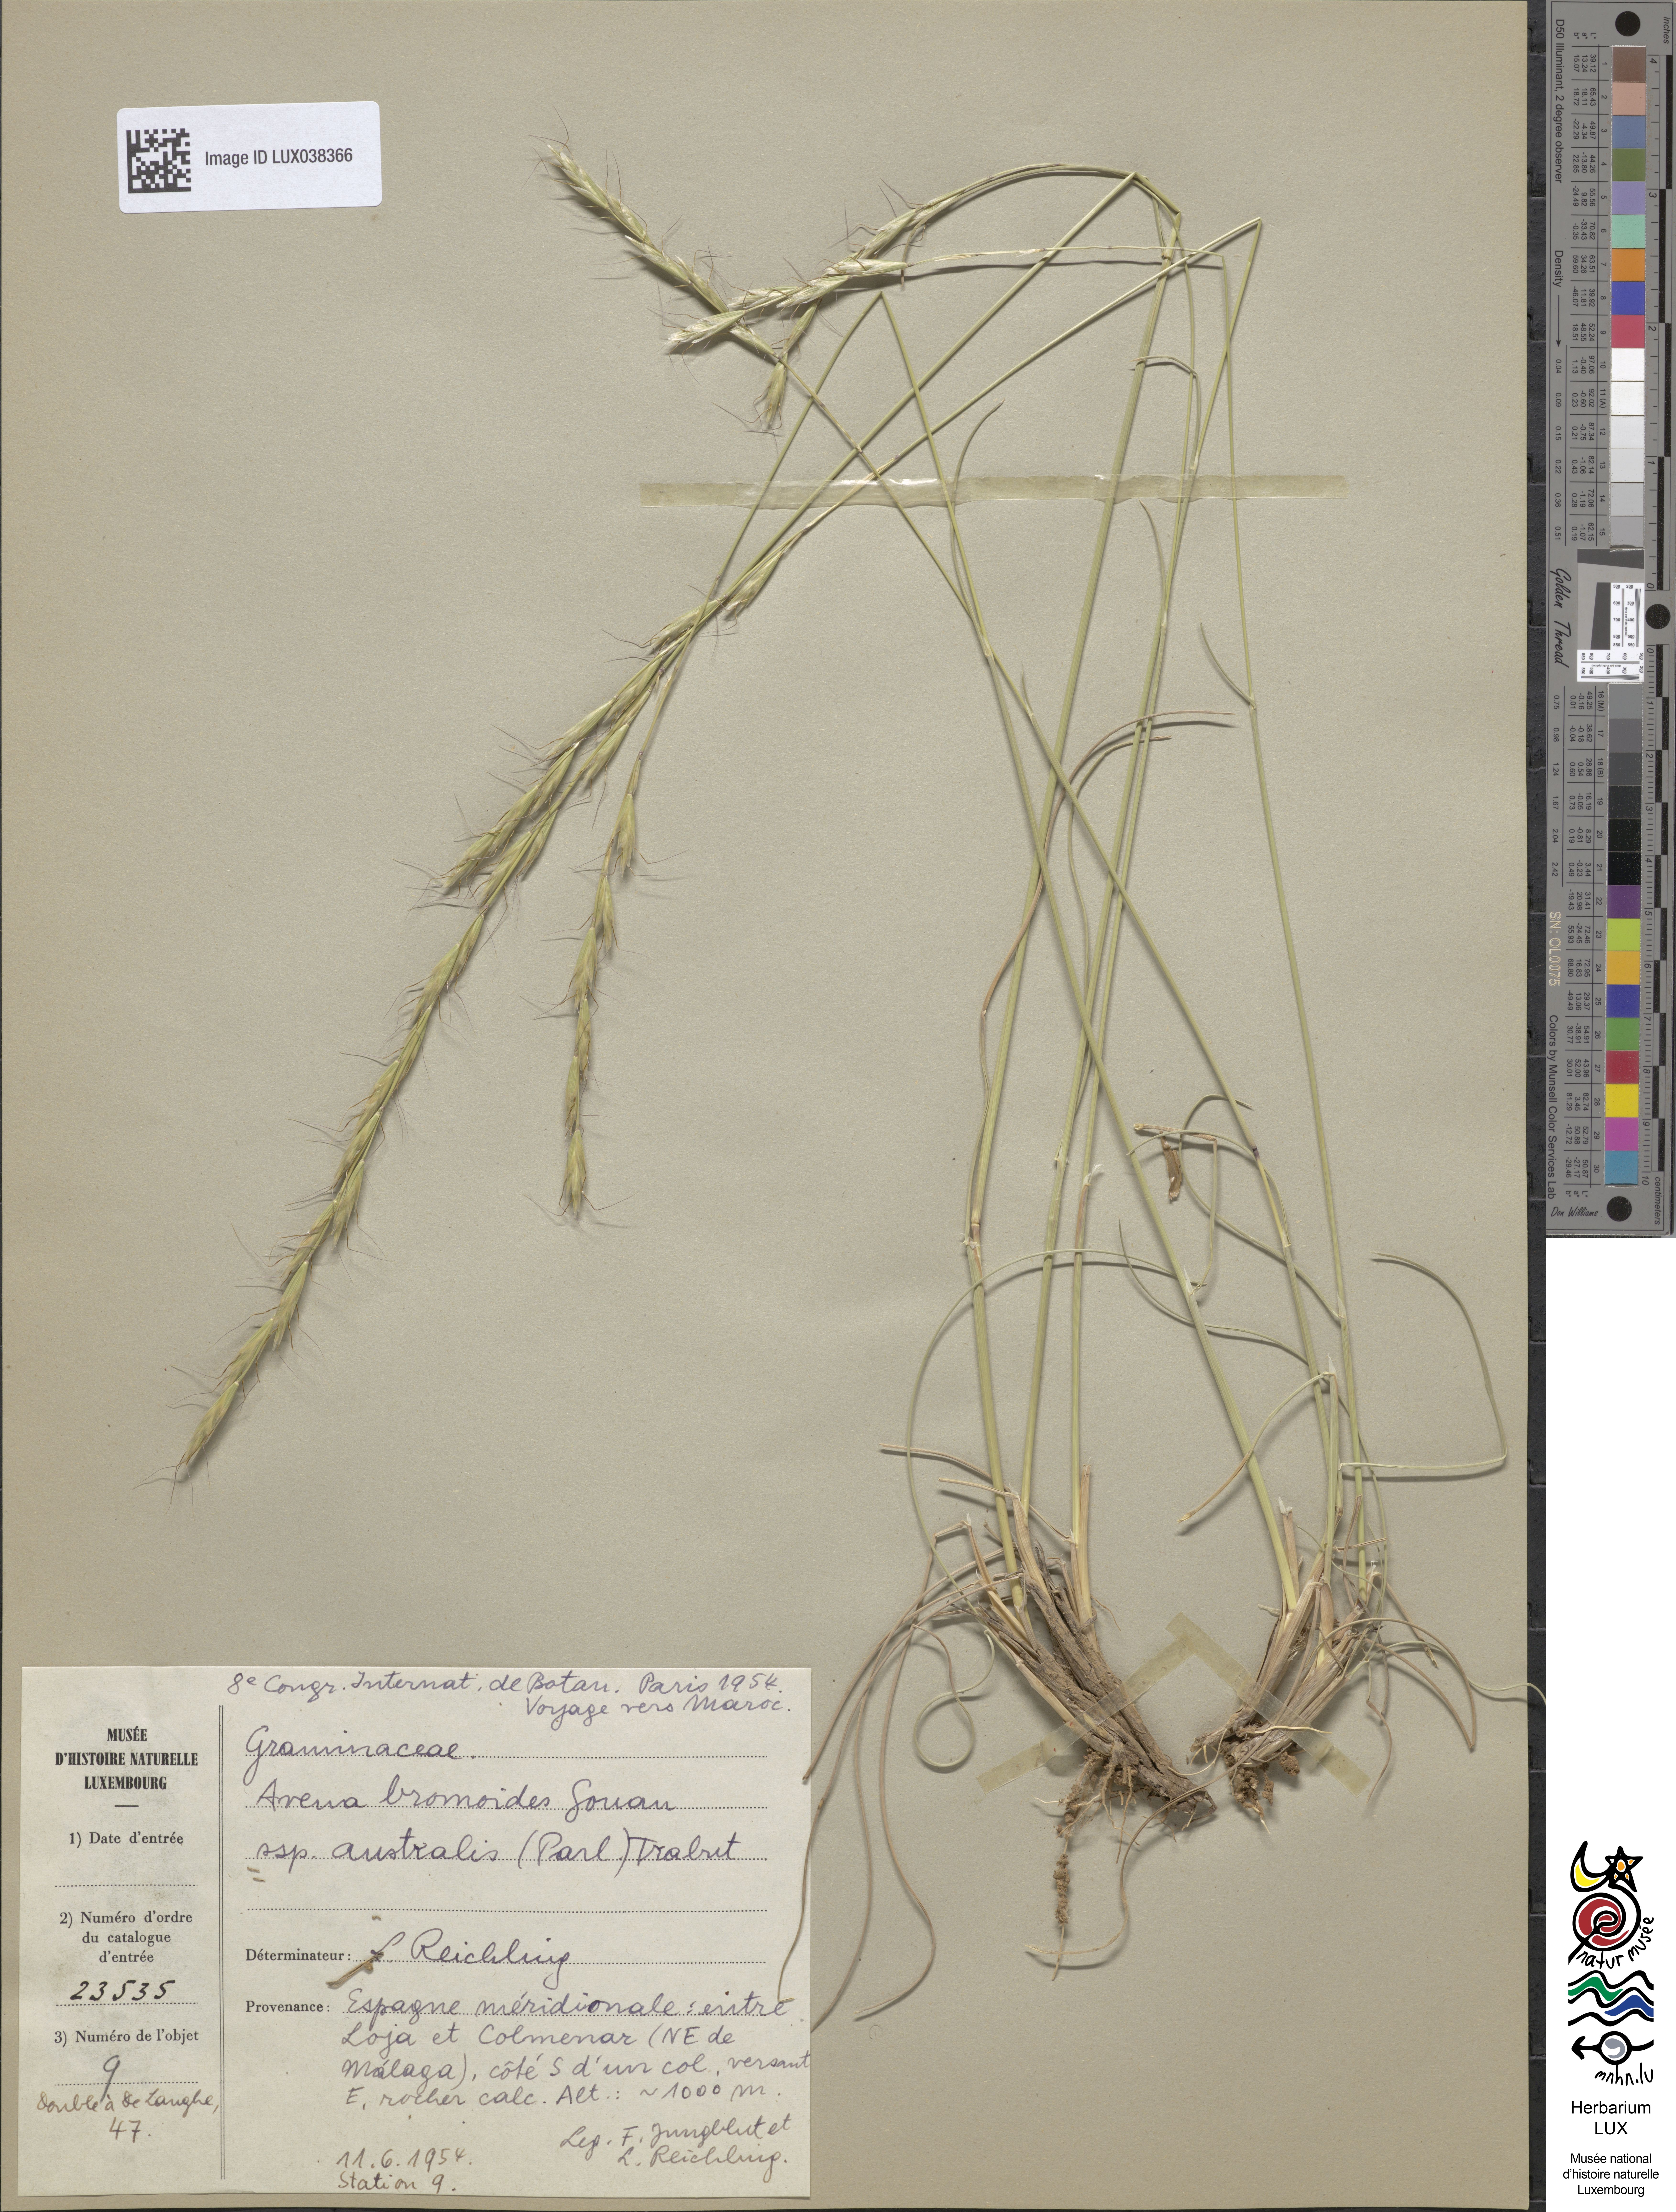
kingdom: Plantae
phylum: Tracheophyta
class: Liliopsida
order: Poales
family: Poaceae
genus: Helictochloa
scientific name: Helictochloa cincinnata
